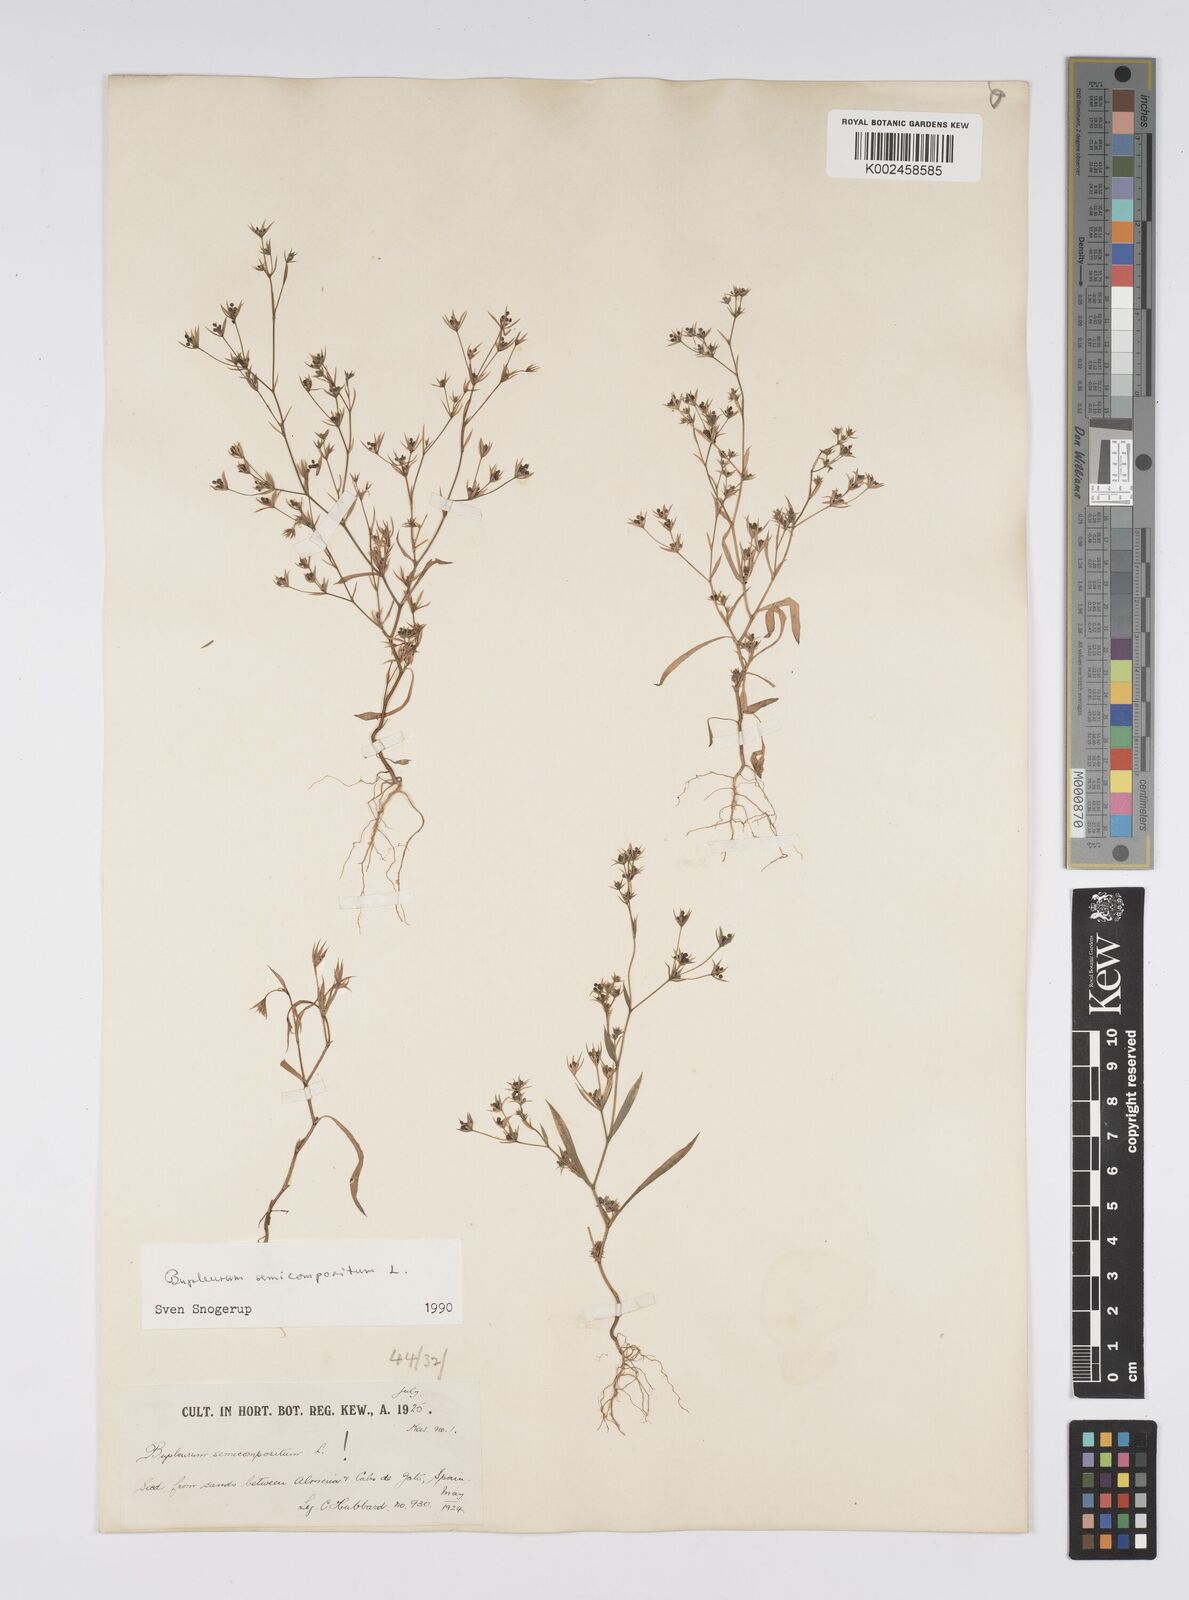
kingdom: Plantae
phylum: Tracheophyta
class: Magnoliopsida
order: Apiales
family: Apiaceae
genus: Bupleurum
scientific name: Bupleurum semicompositum
